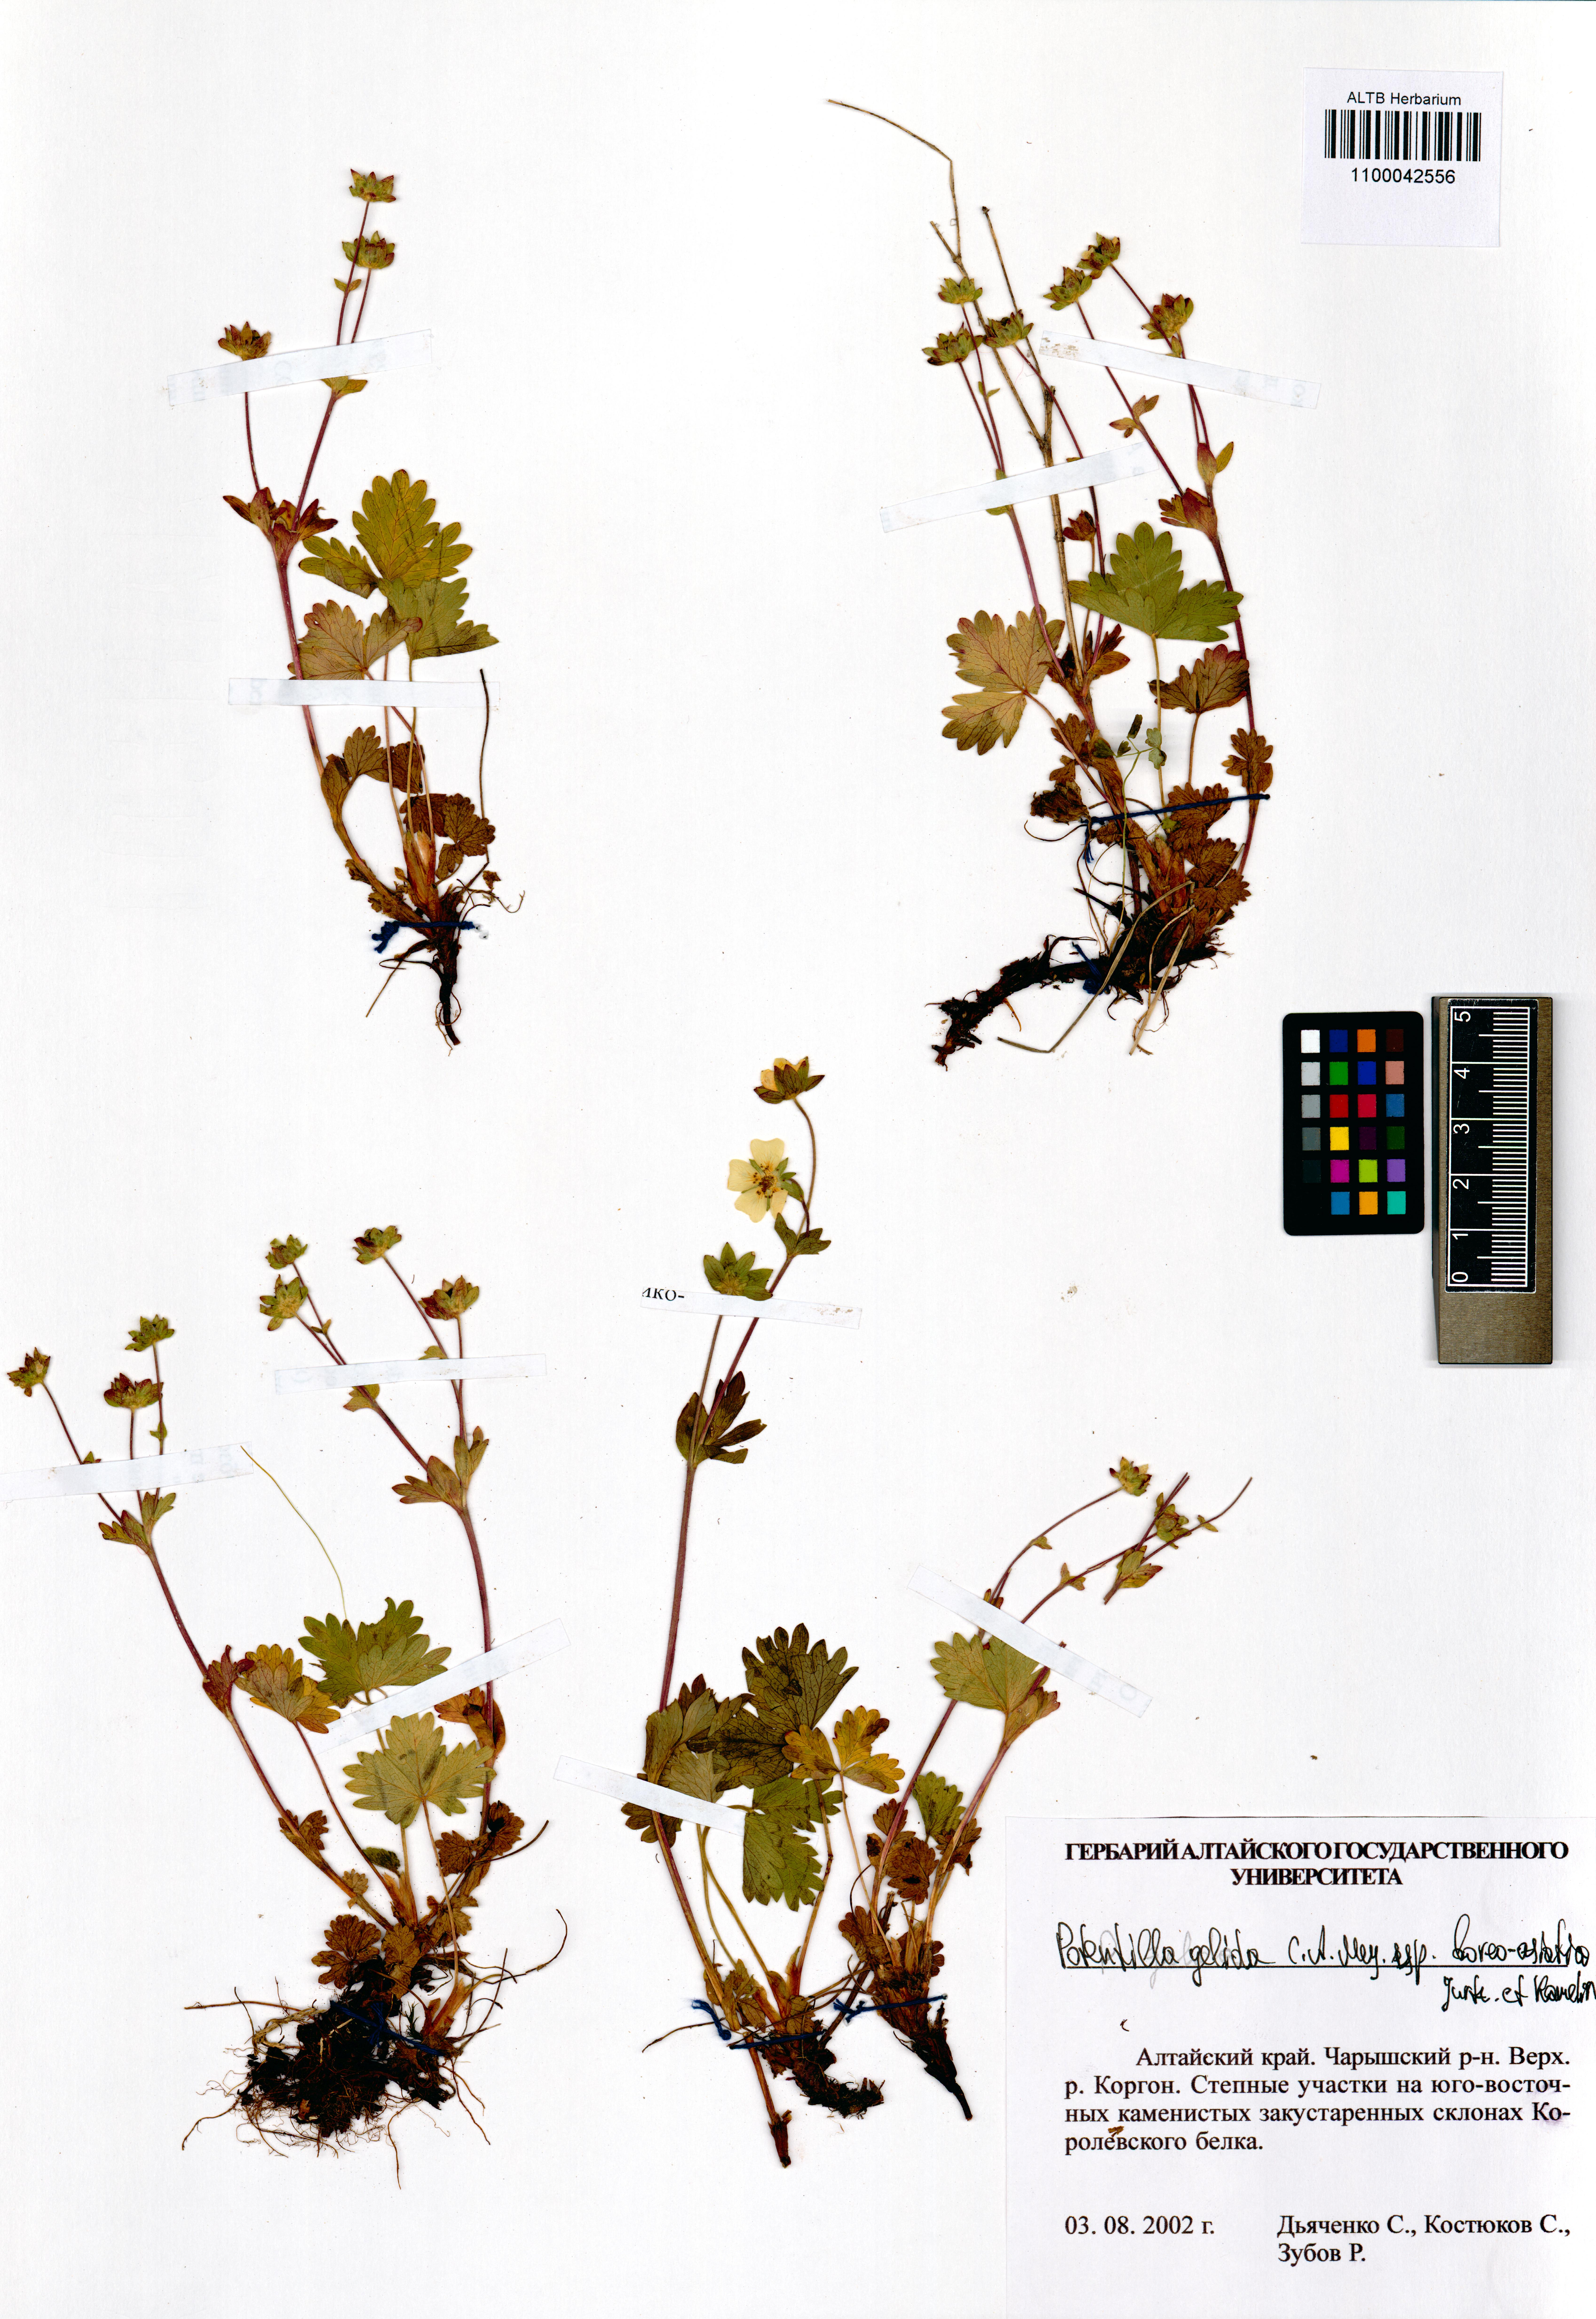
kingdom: Plantae
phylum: Tracheophyta
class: Magnoliopsida
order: Rosales
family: Rosaceae
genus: Potentilla
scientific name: Potentilla crantzii
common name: Alpine cinquefoil
